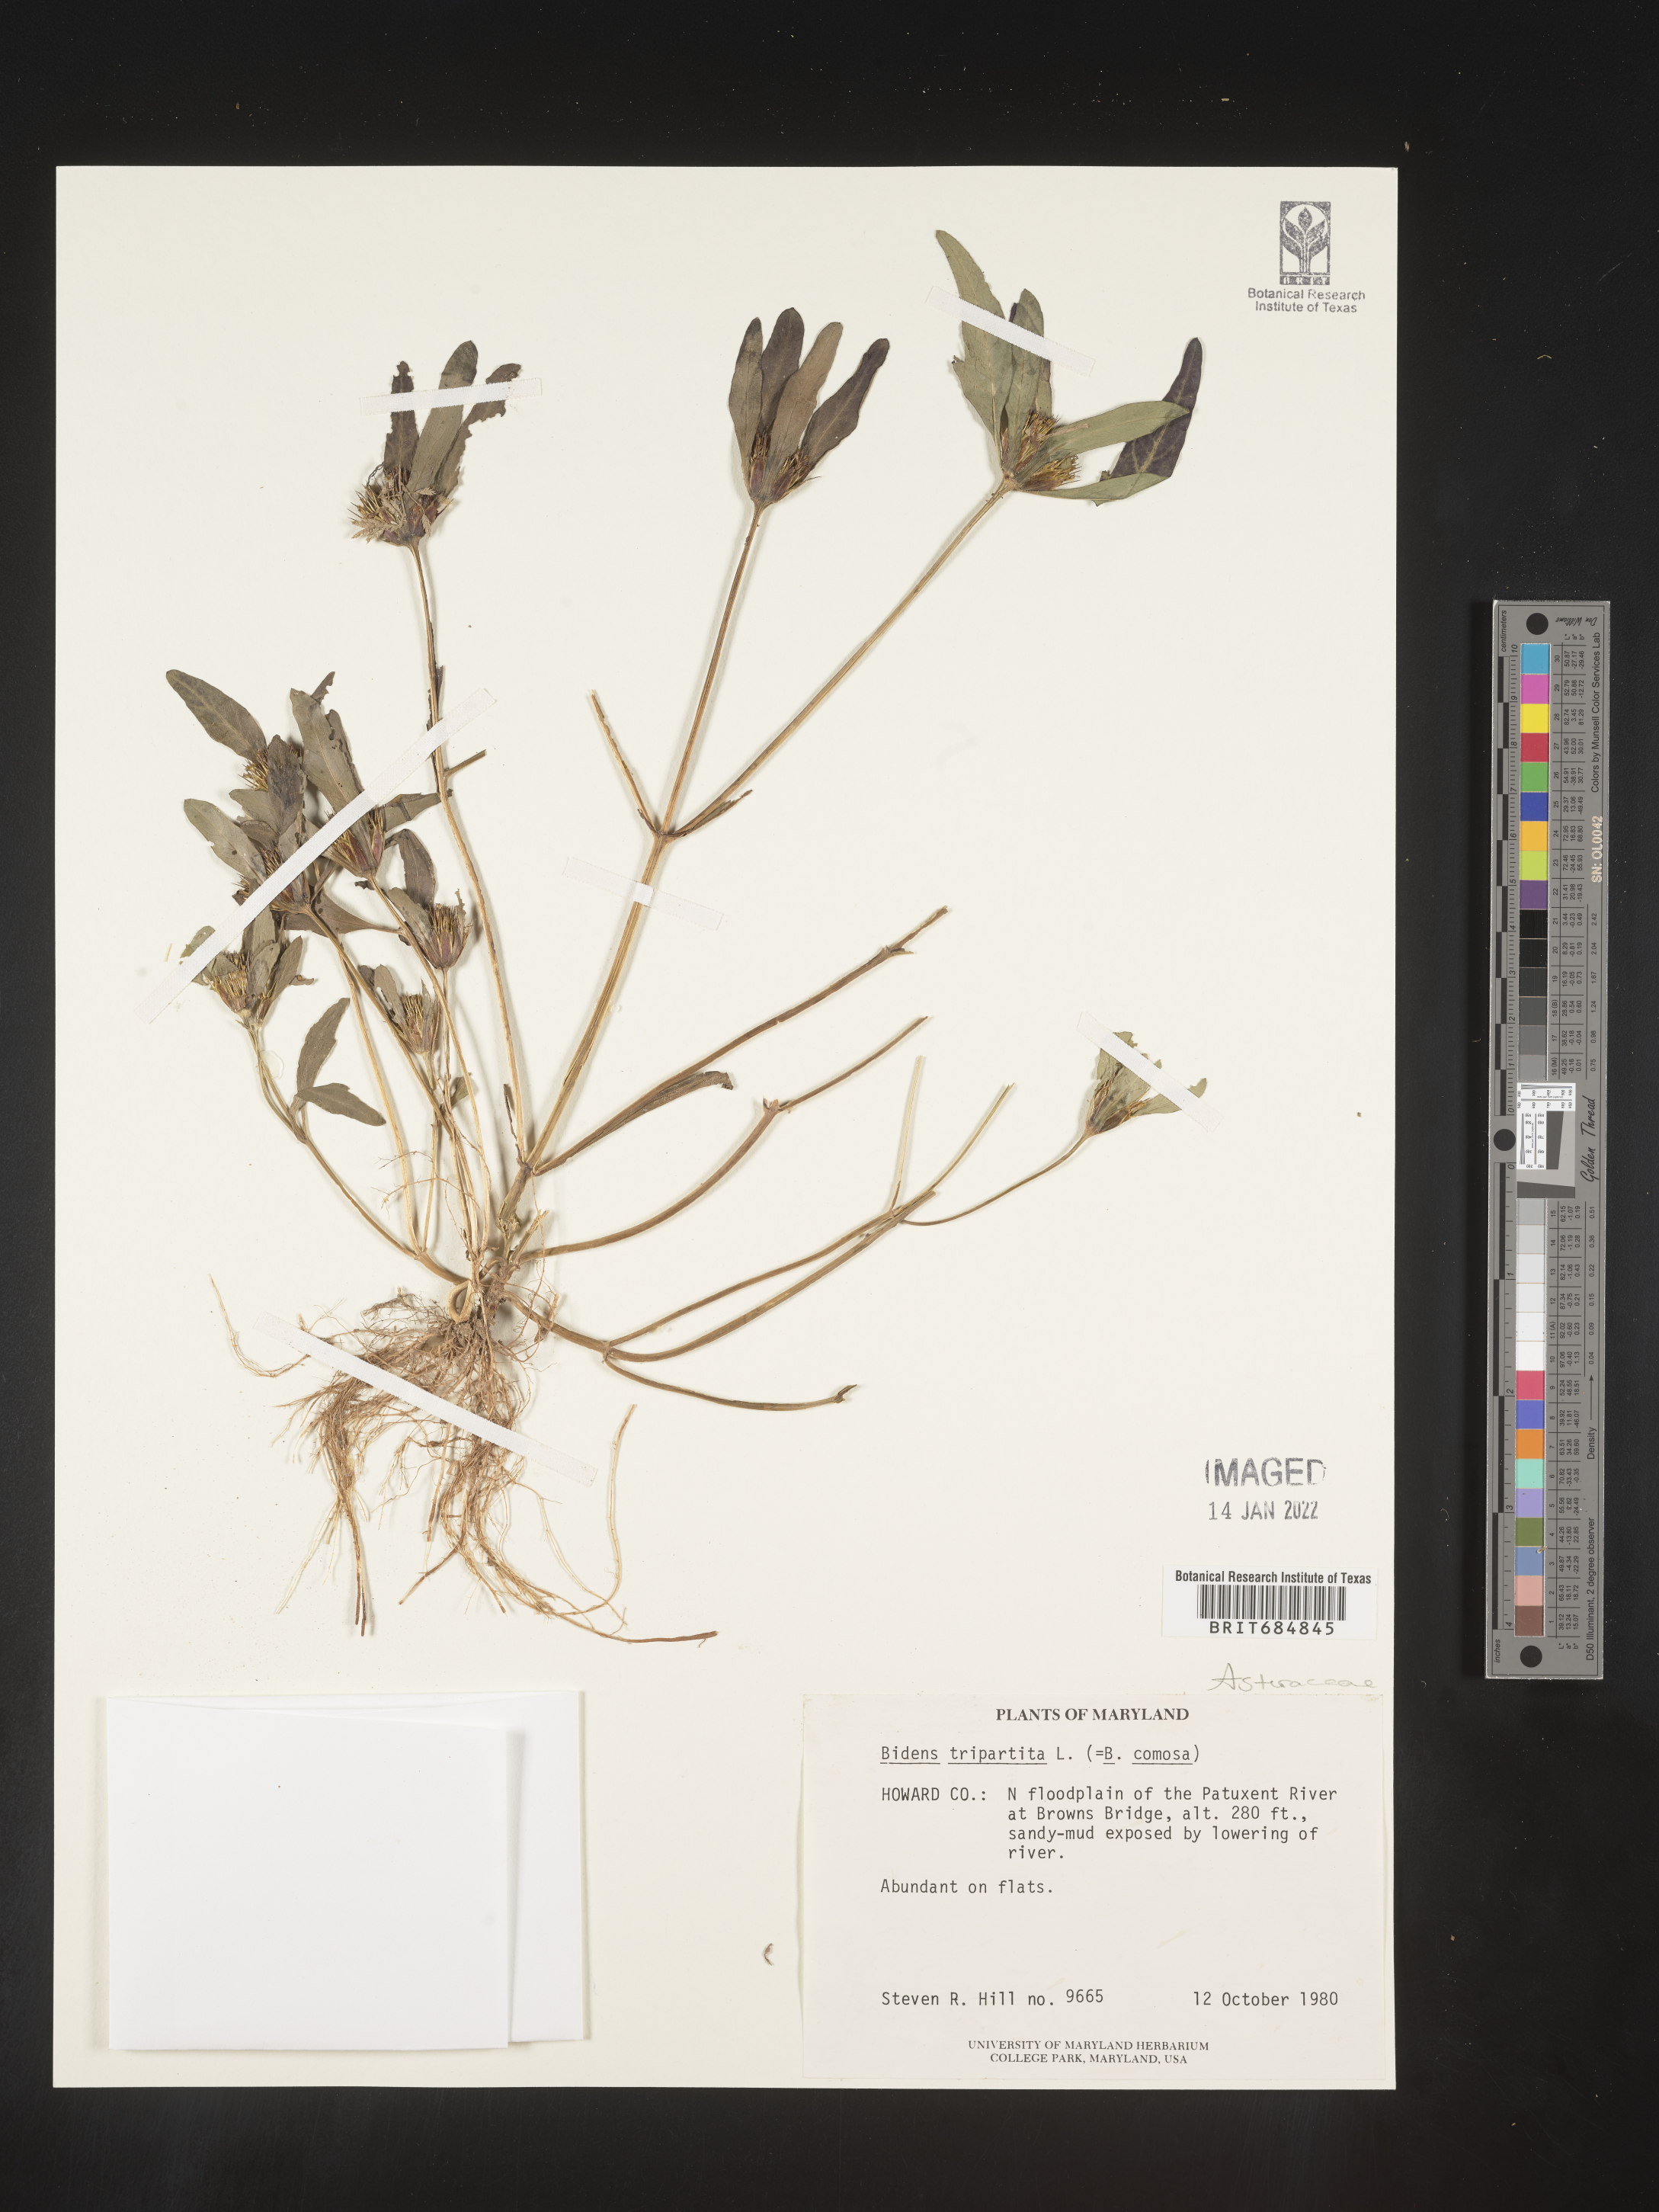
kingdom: Plantae
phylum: Tracheophyta
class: Magnoliopsida
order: Asterales
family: Asteraceae
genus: Bidens
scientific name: Bidens tripartita
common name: Trifid bur-marigold
